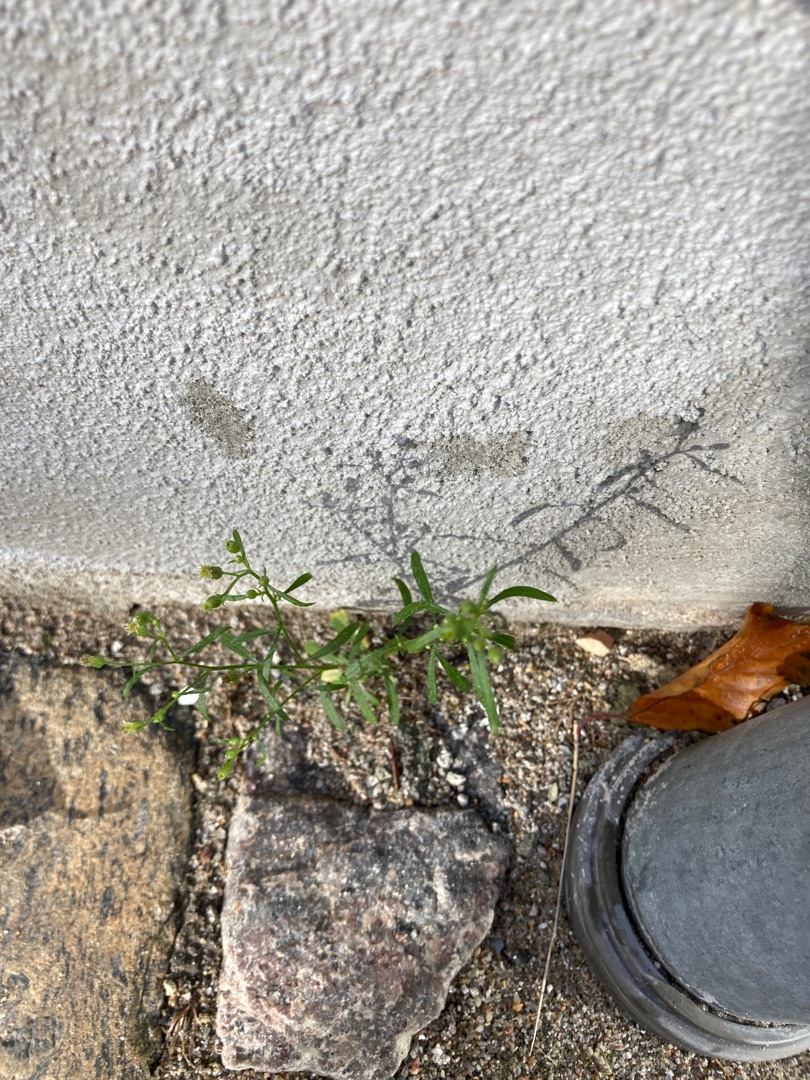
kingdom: Plantae
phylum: Tracheophyta
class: Magnoliopsida
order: Asterales
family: Asteraceae
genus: Erigeron
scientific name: Erigeron canadensis
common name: Kanadisk bakkestjerne
